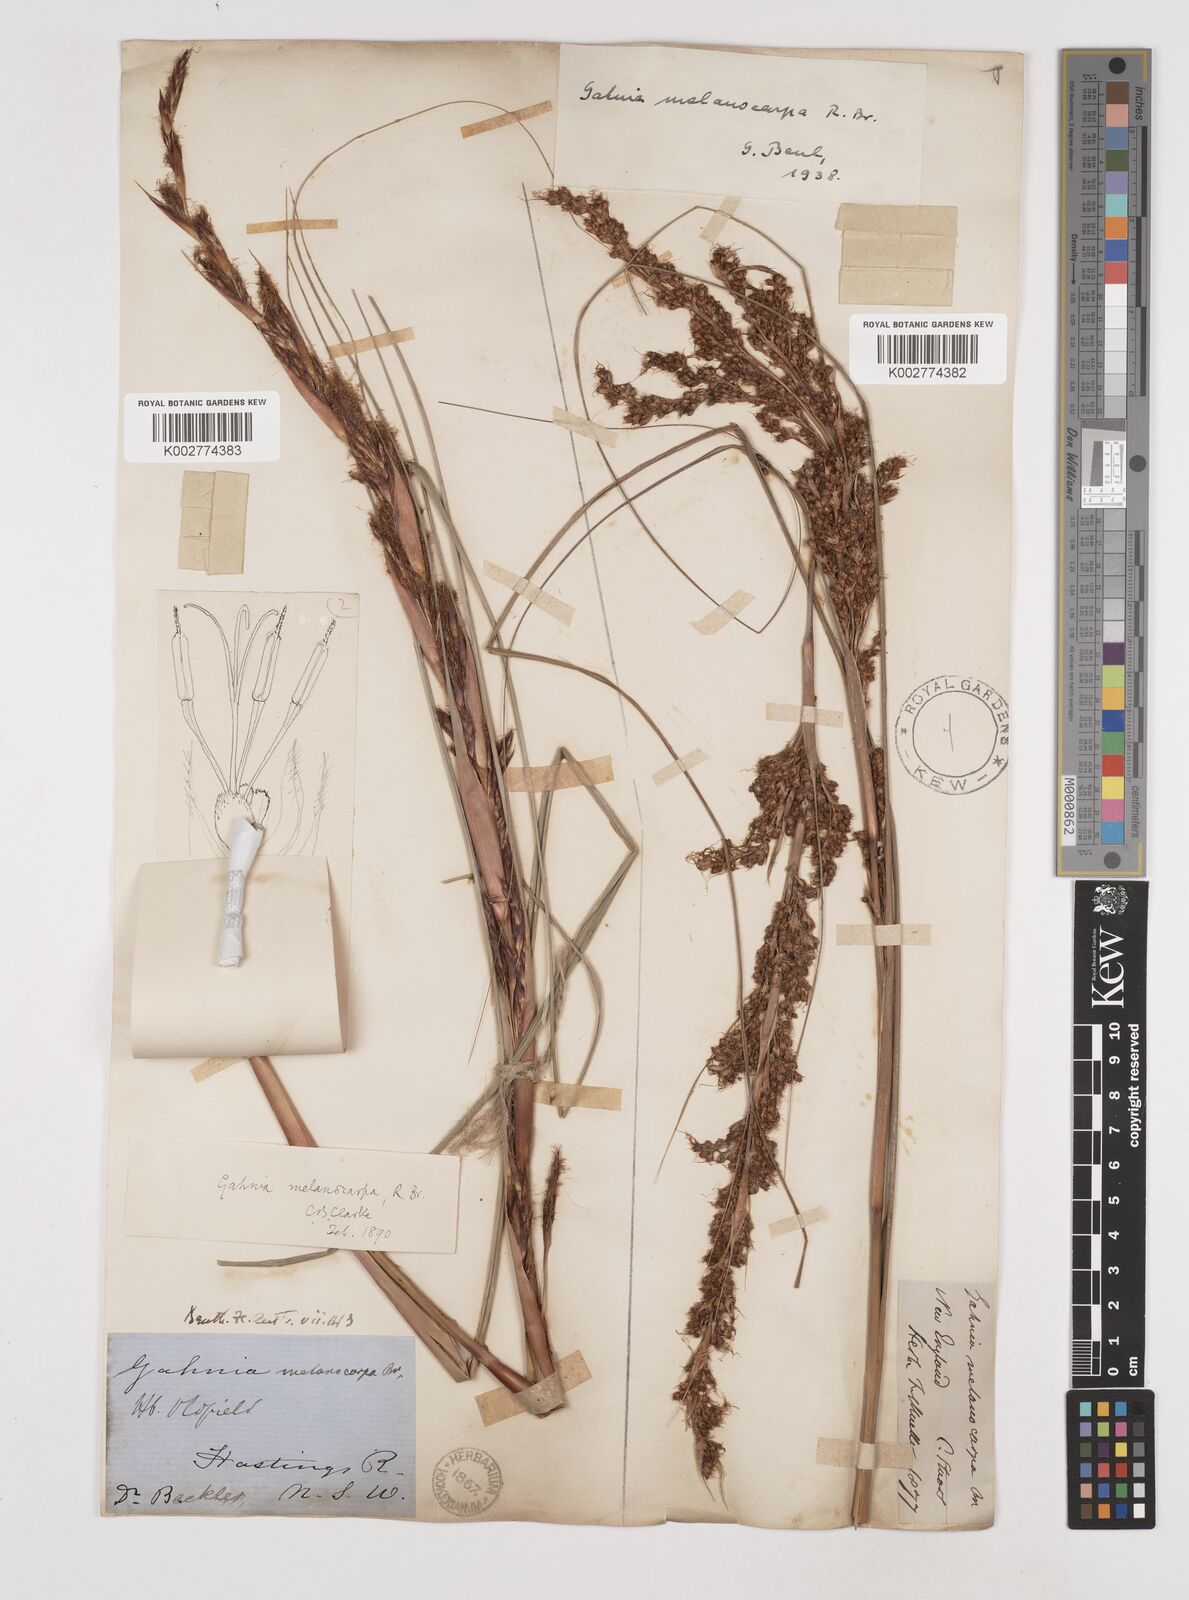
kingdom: Plantae
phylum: Tracheophyta
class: Liliopsida
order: Poales
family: Cyperaceae
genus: Gahnia
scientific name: Gahnia melanocarpa
